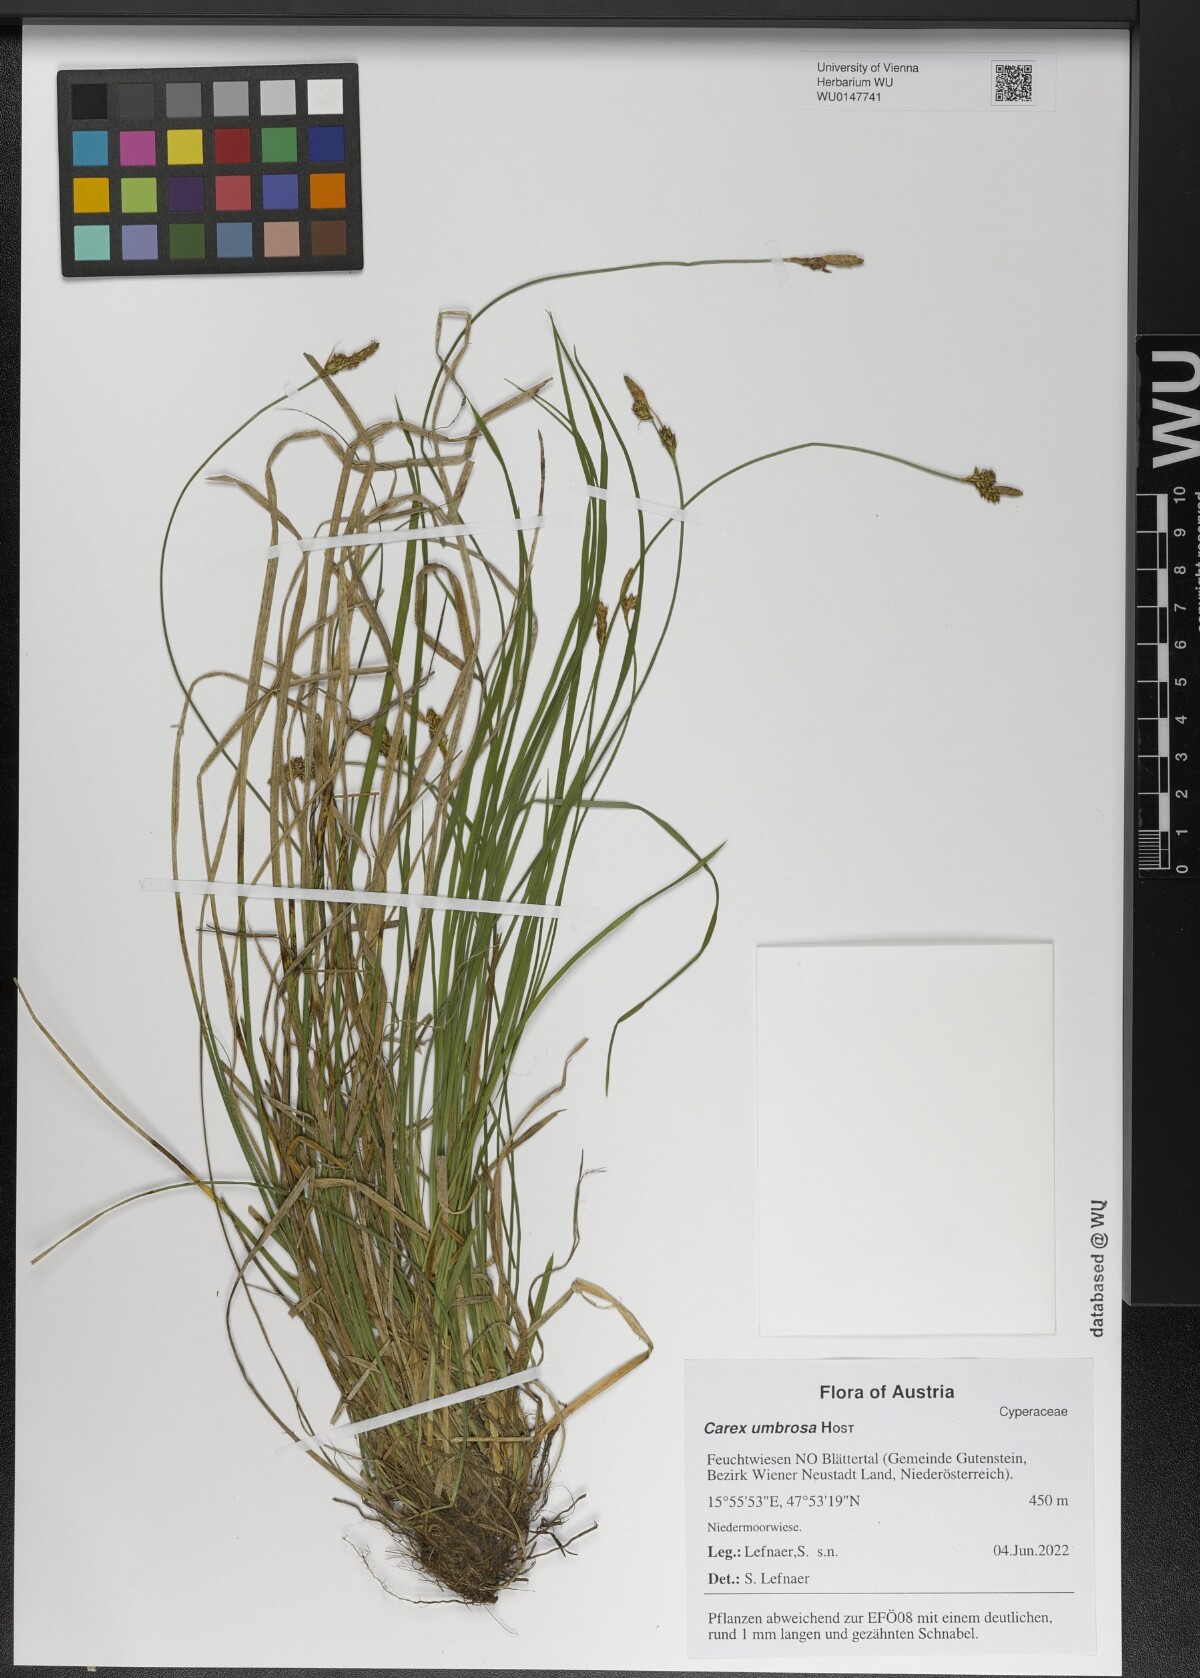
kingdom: Plantae
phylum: Tracheophyta
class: Liliopsida
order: Poales
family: Cyperaceae
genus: Carex
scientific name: Carex umbrosa
